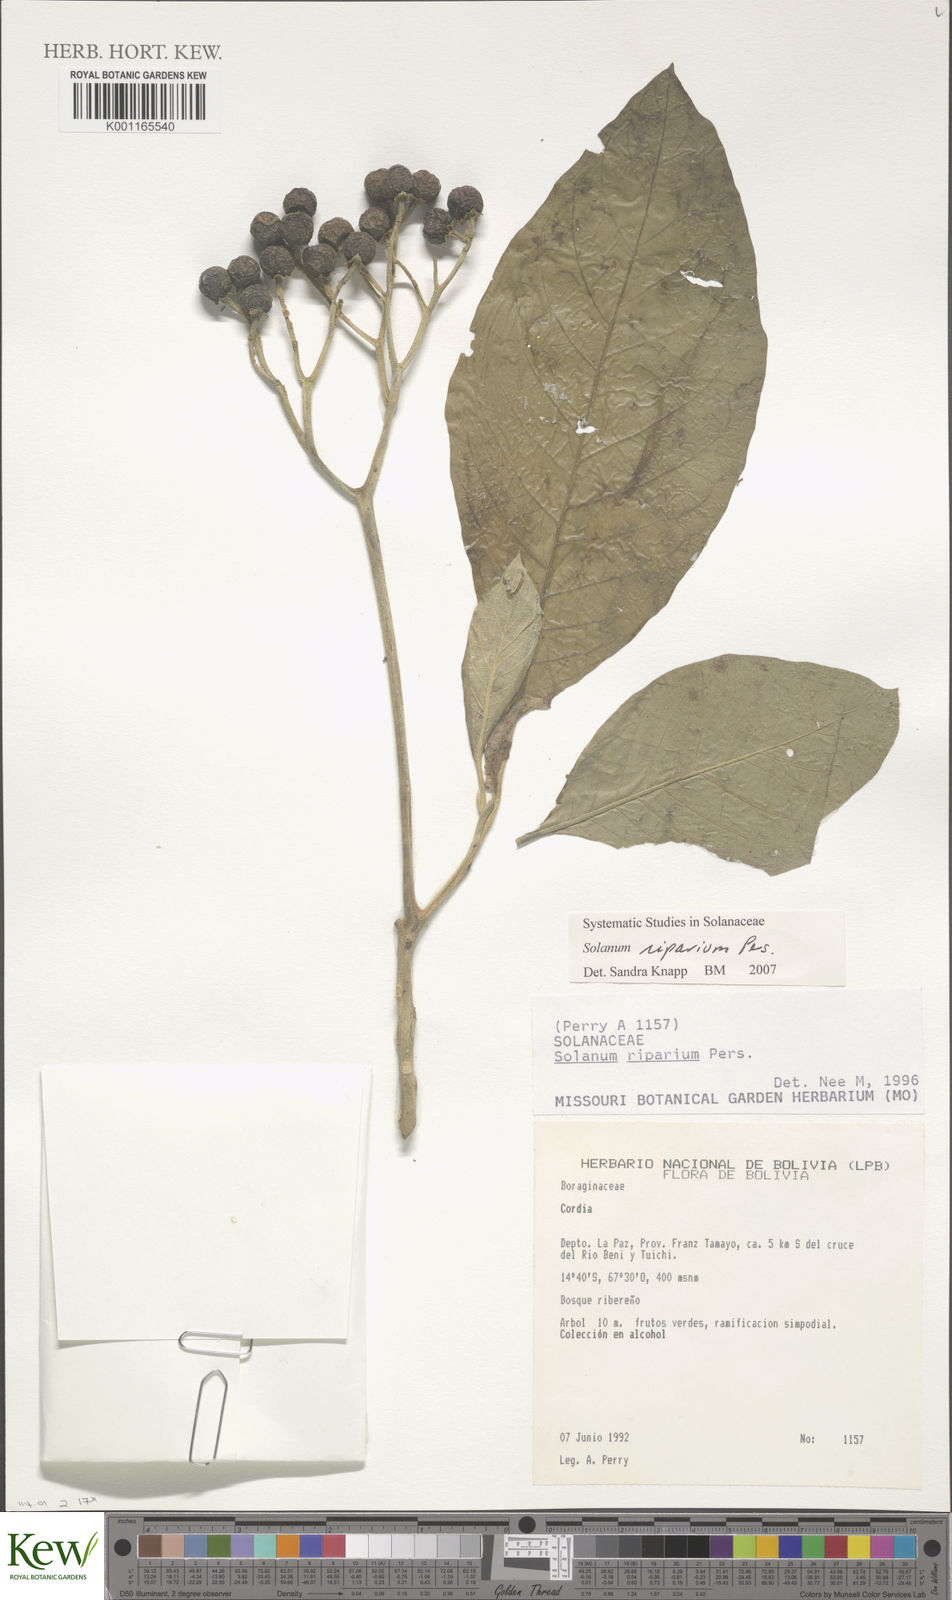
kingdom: Plantae
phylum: Tracheophyta
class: Magnoliopsida
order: Solanales
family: Solanaceae
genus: Solanum
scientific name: Solanum riparium
